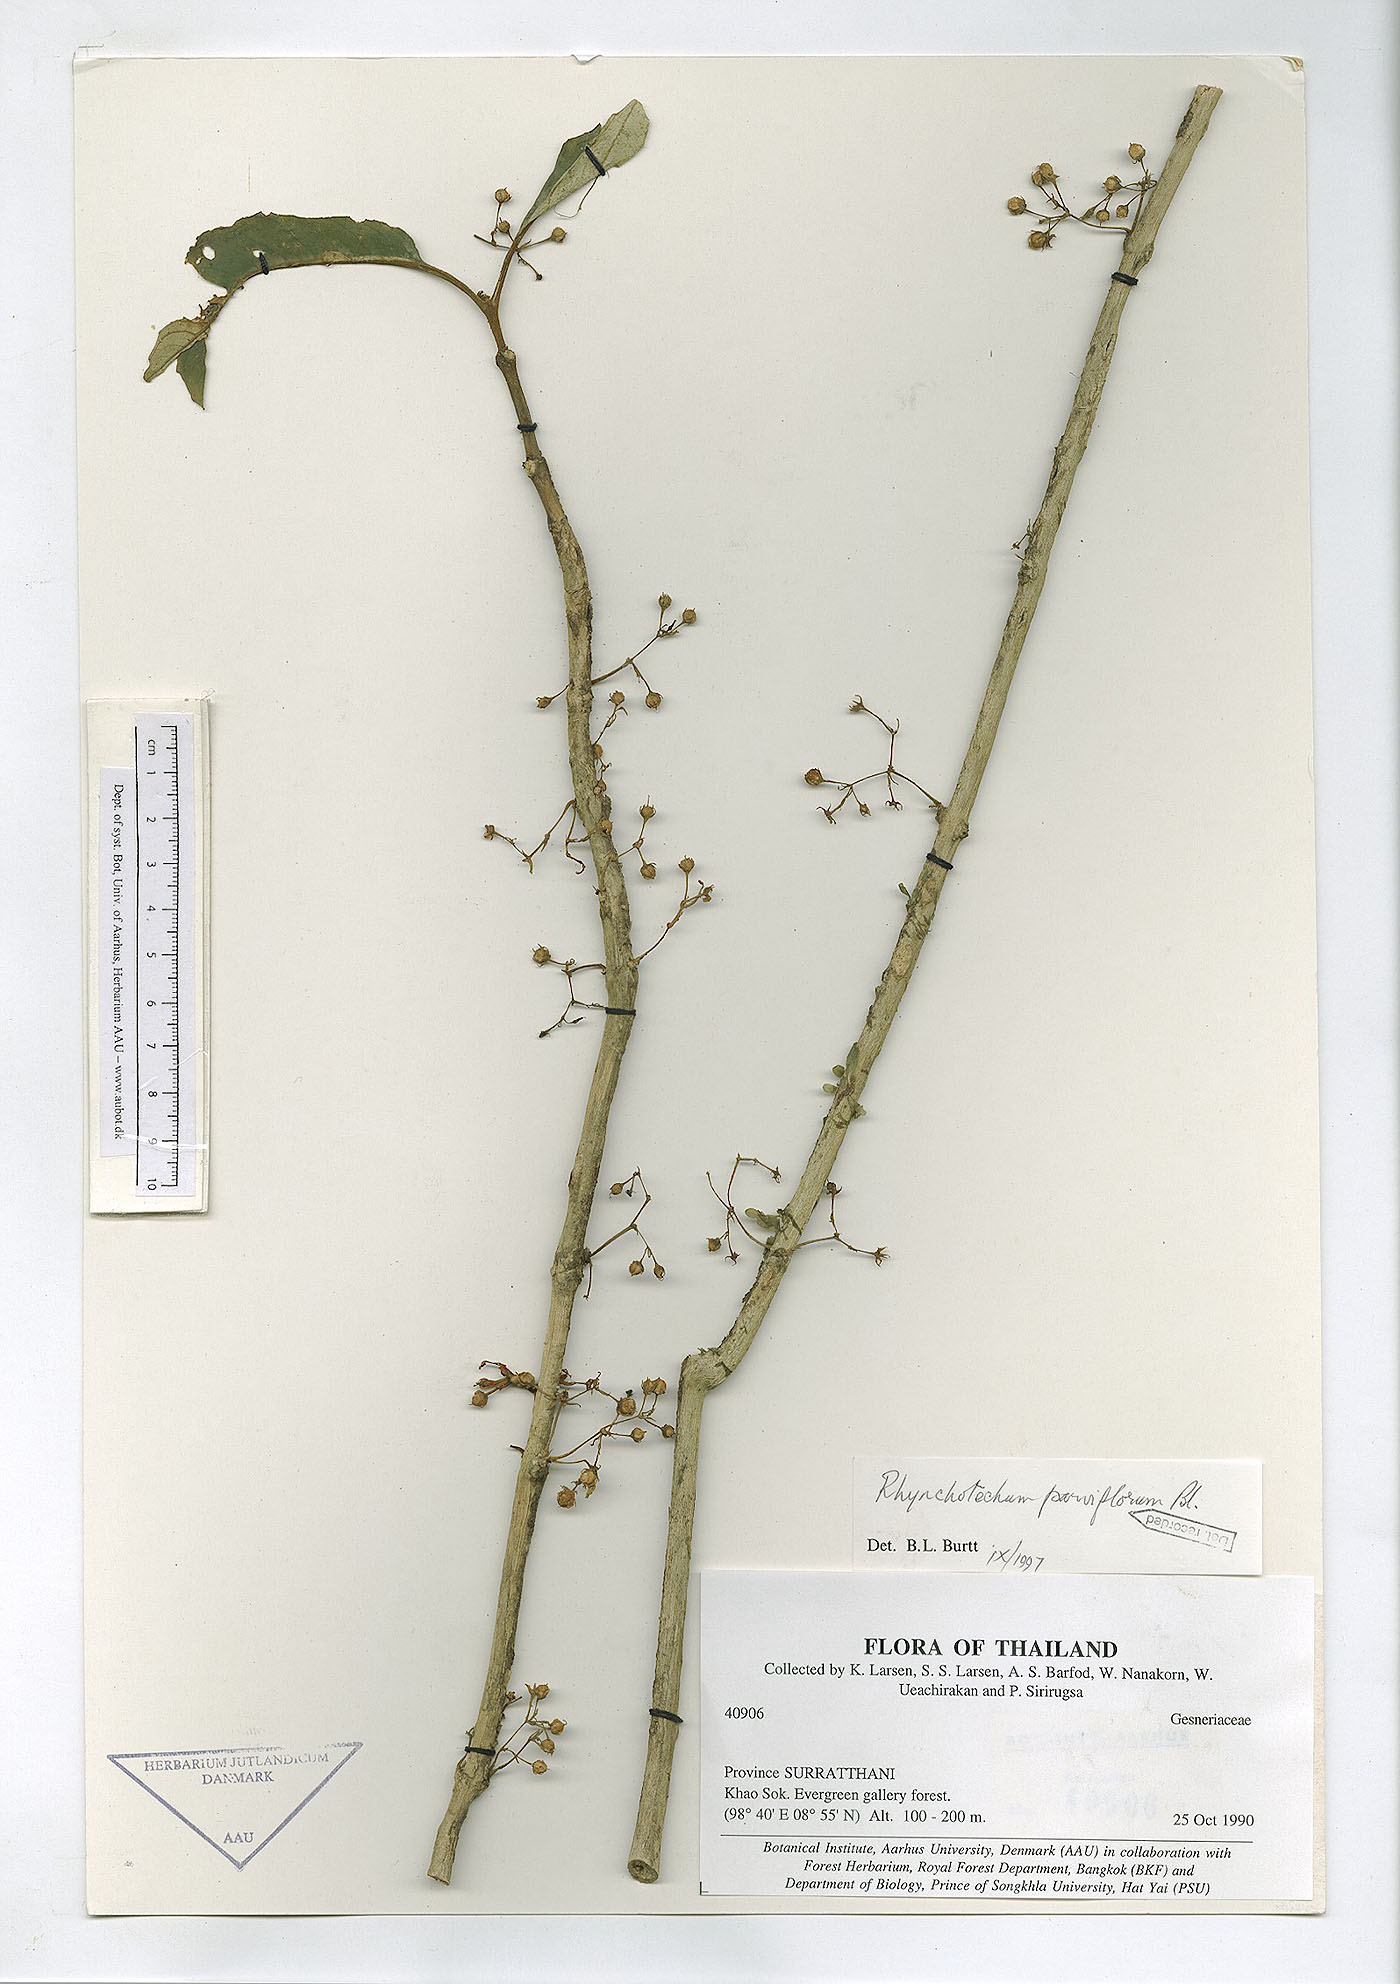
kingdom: Plantae
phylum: Tracheophyta
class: Magnoliopsida
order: Lamiales
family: Gesneriaceae
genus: Rhynchotechum
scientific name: Rhynchotechum parviflorum
